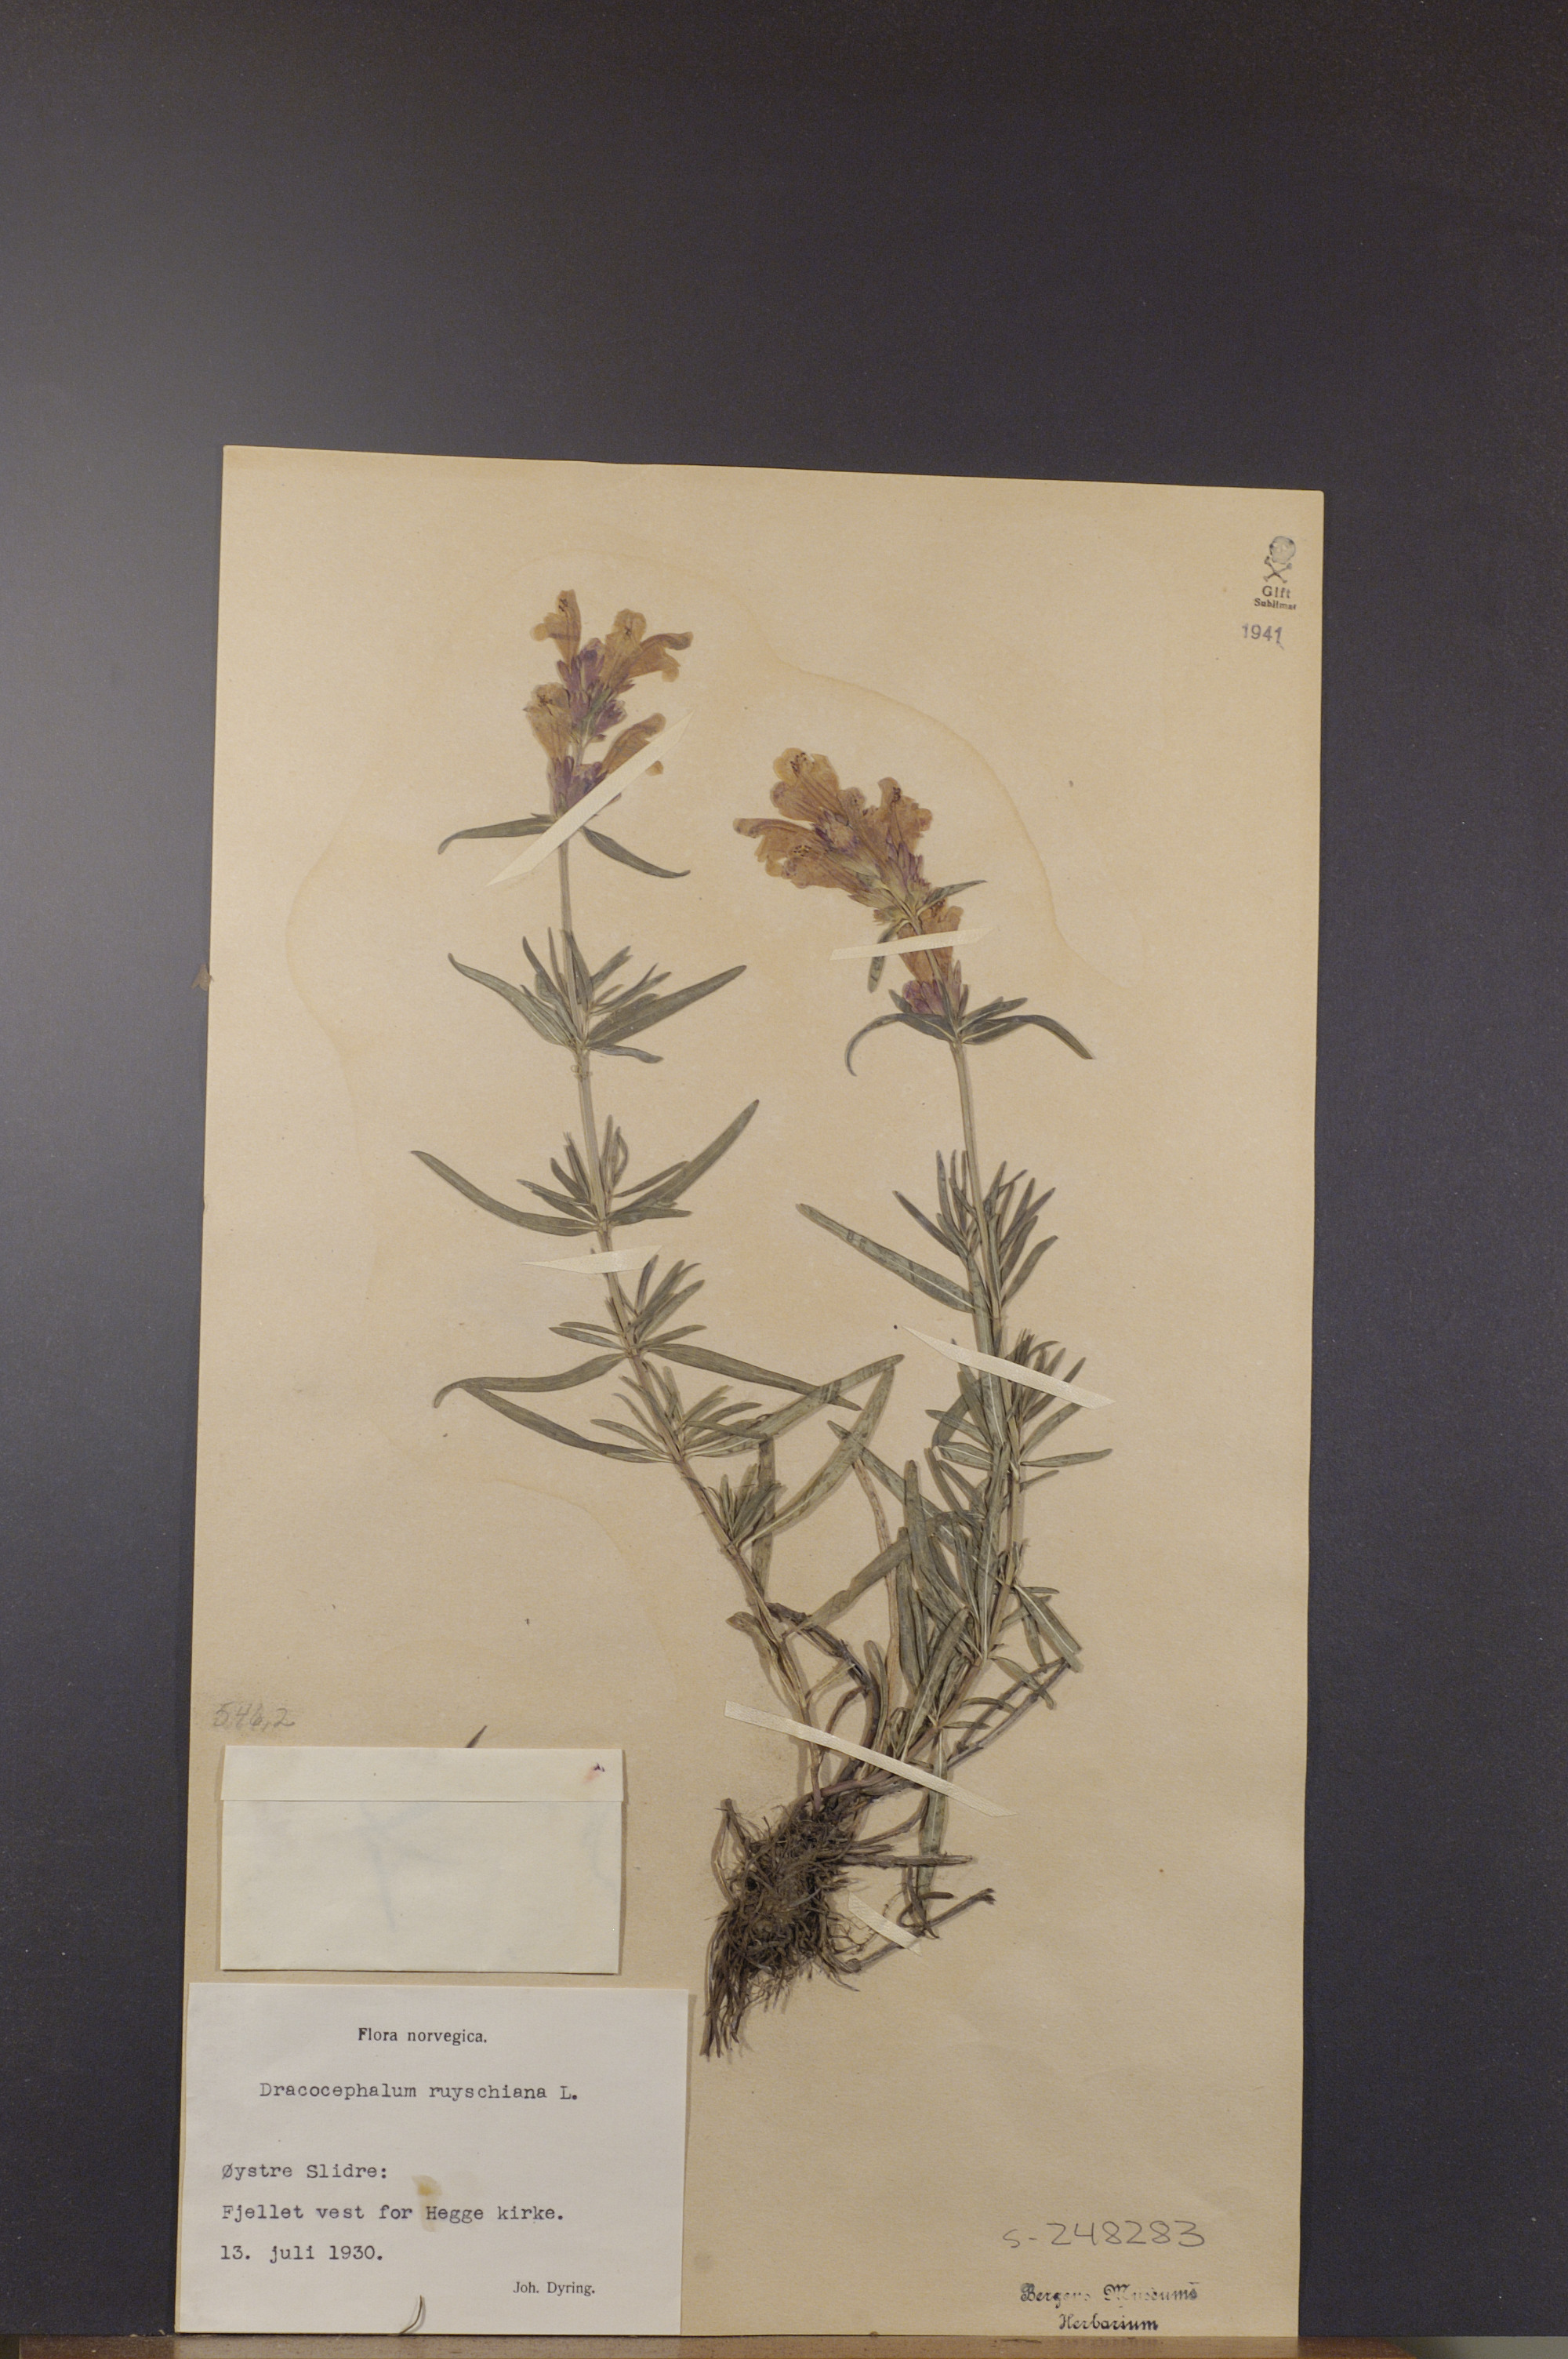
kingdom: Plantae
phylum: Tracheophyta
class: Magnoliopsida
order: Lamiales
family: Lamiaceae
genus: Dracocephalum
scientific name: Dracocephalum ruyschiana
